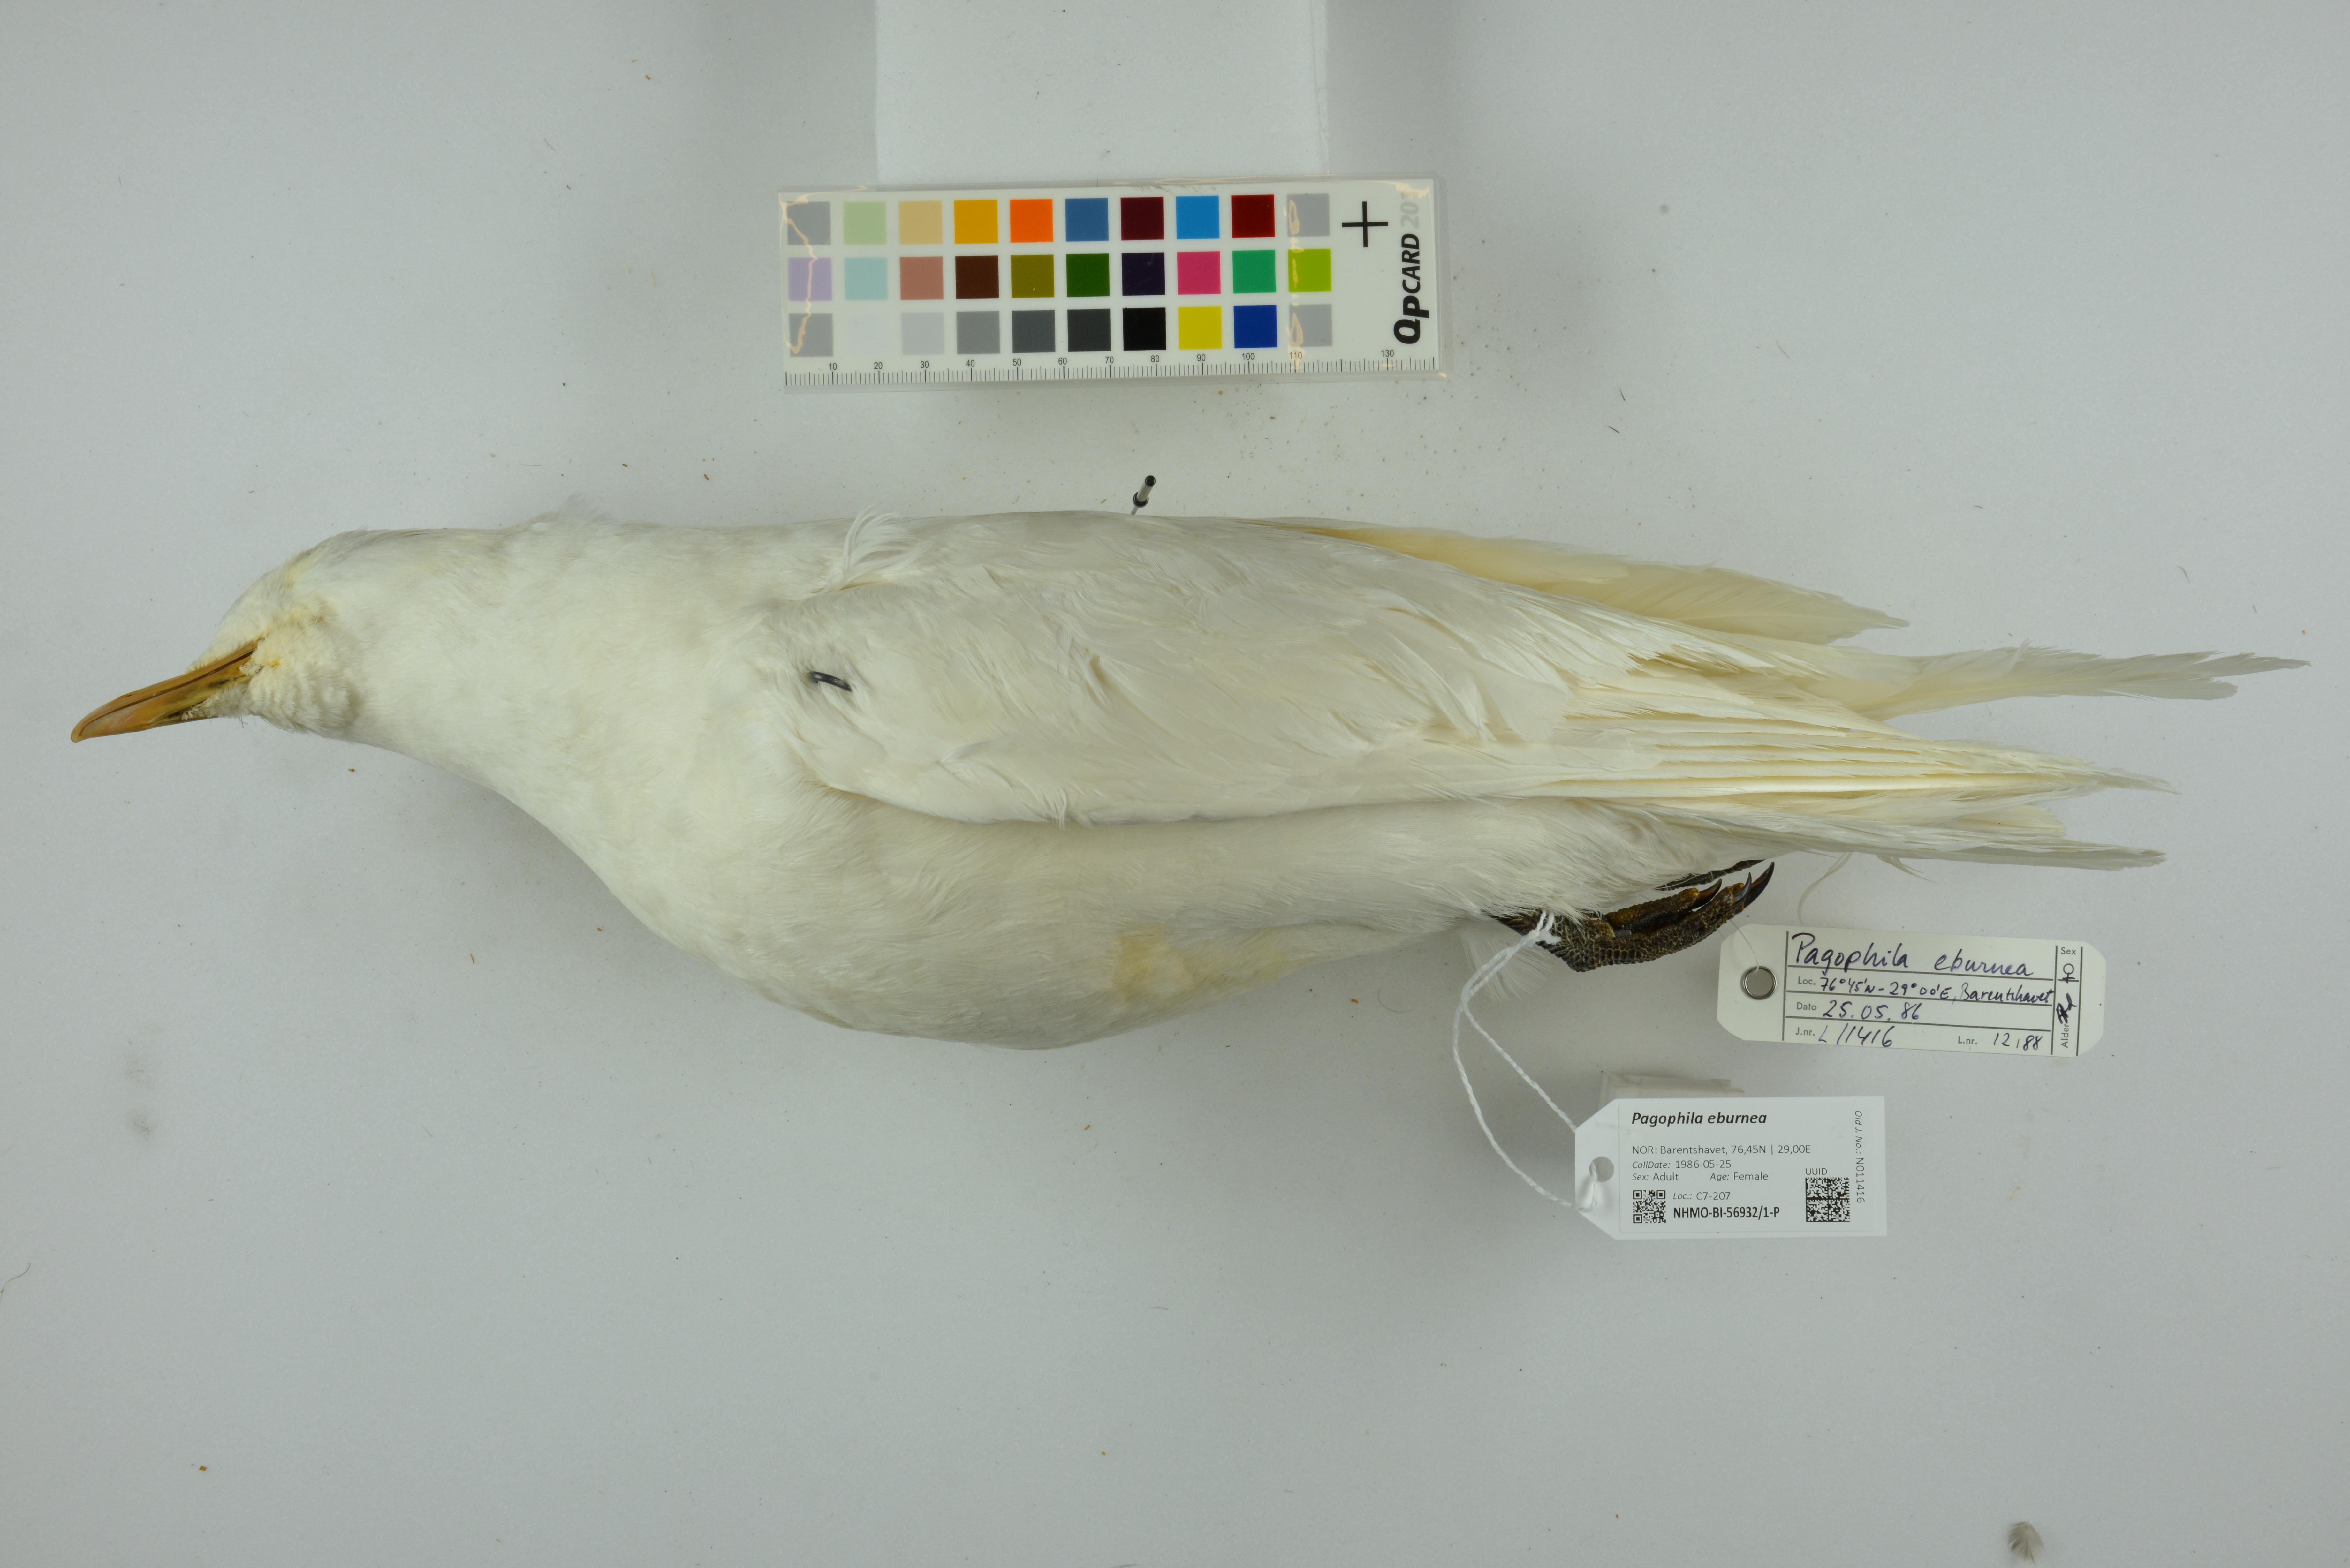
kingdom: Animalia
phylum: Chordata
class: Aves
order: Charadriiformes
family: Laridae
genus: Pagophila
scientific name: Pagophila eburnea
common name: Ivory gull
